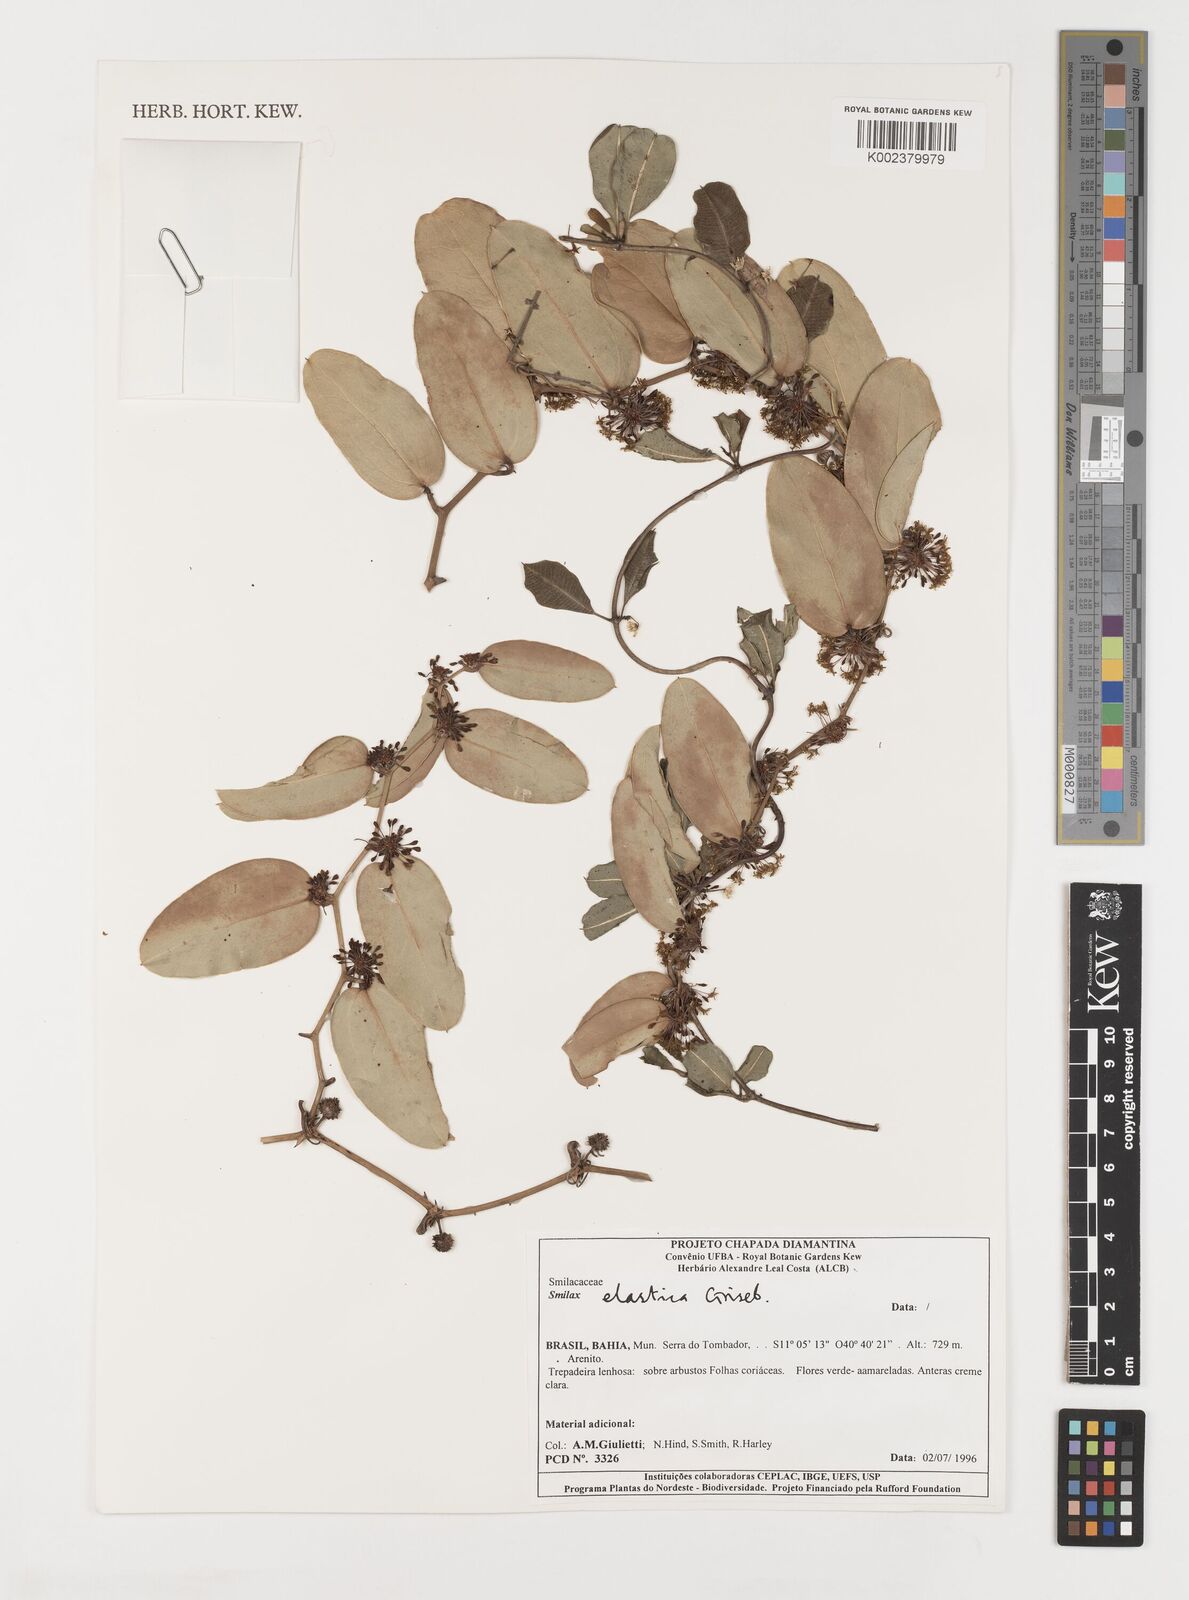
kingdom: Plantae
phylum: Tracheophyta
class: Liliopsida
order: Liliales
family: Smilacaceae
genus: Smilax
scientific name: Smilax elastica
